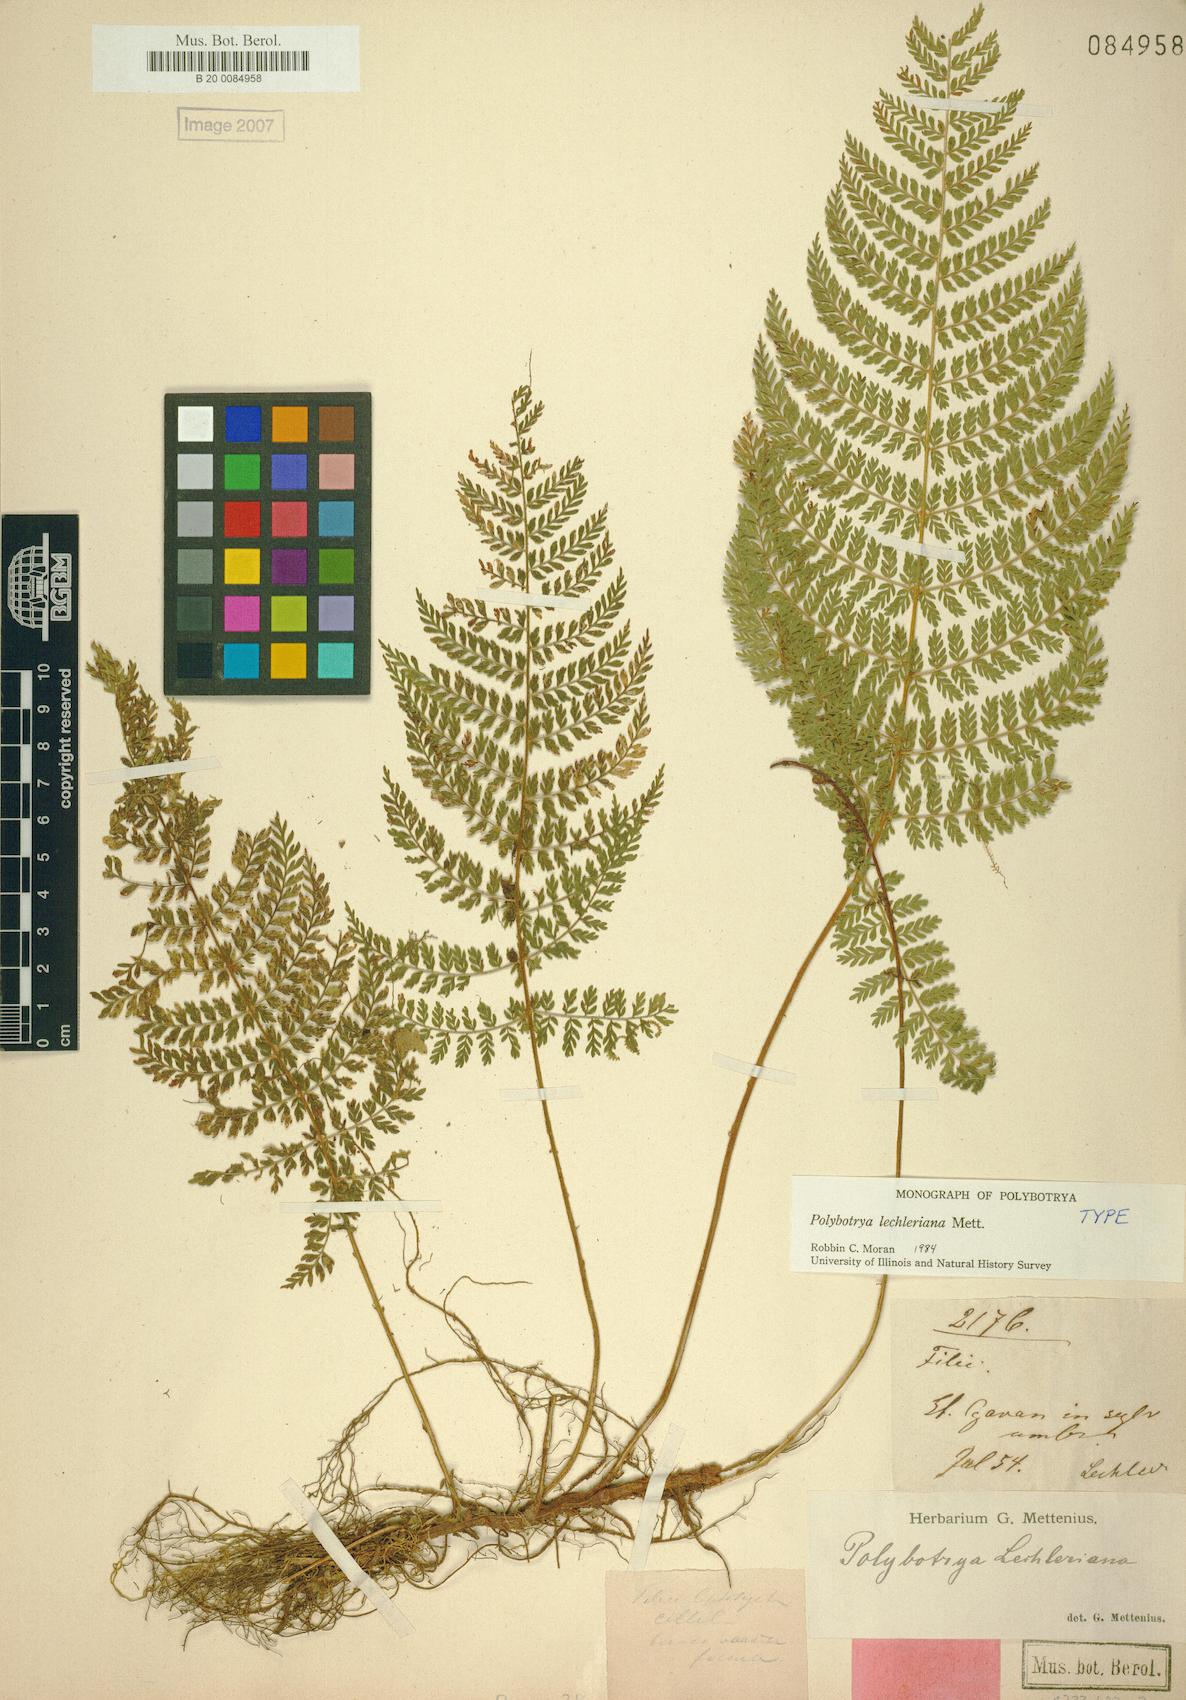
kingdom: Plantae
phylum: Tracheophyta
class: Polypodiopsida
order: Polypodiales
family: Dryopteridaceae
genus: Polybotrya
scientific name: Polybotrya lechleriana
